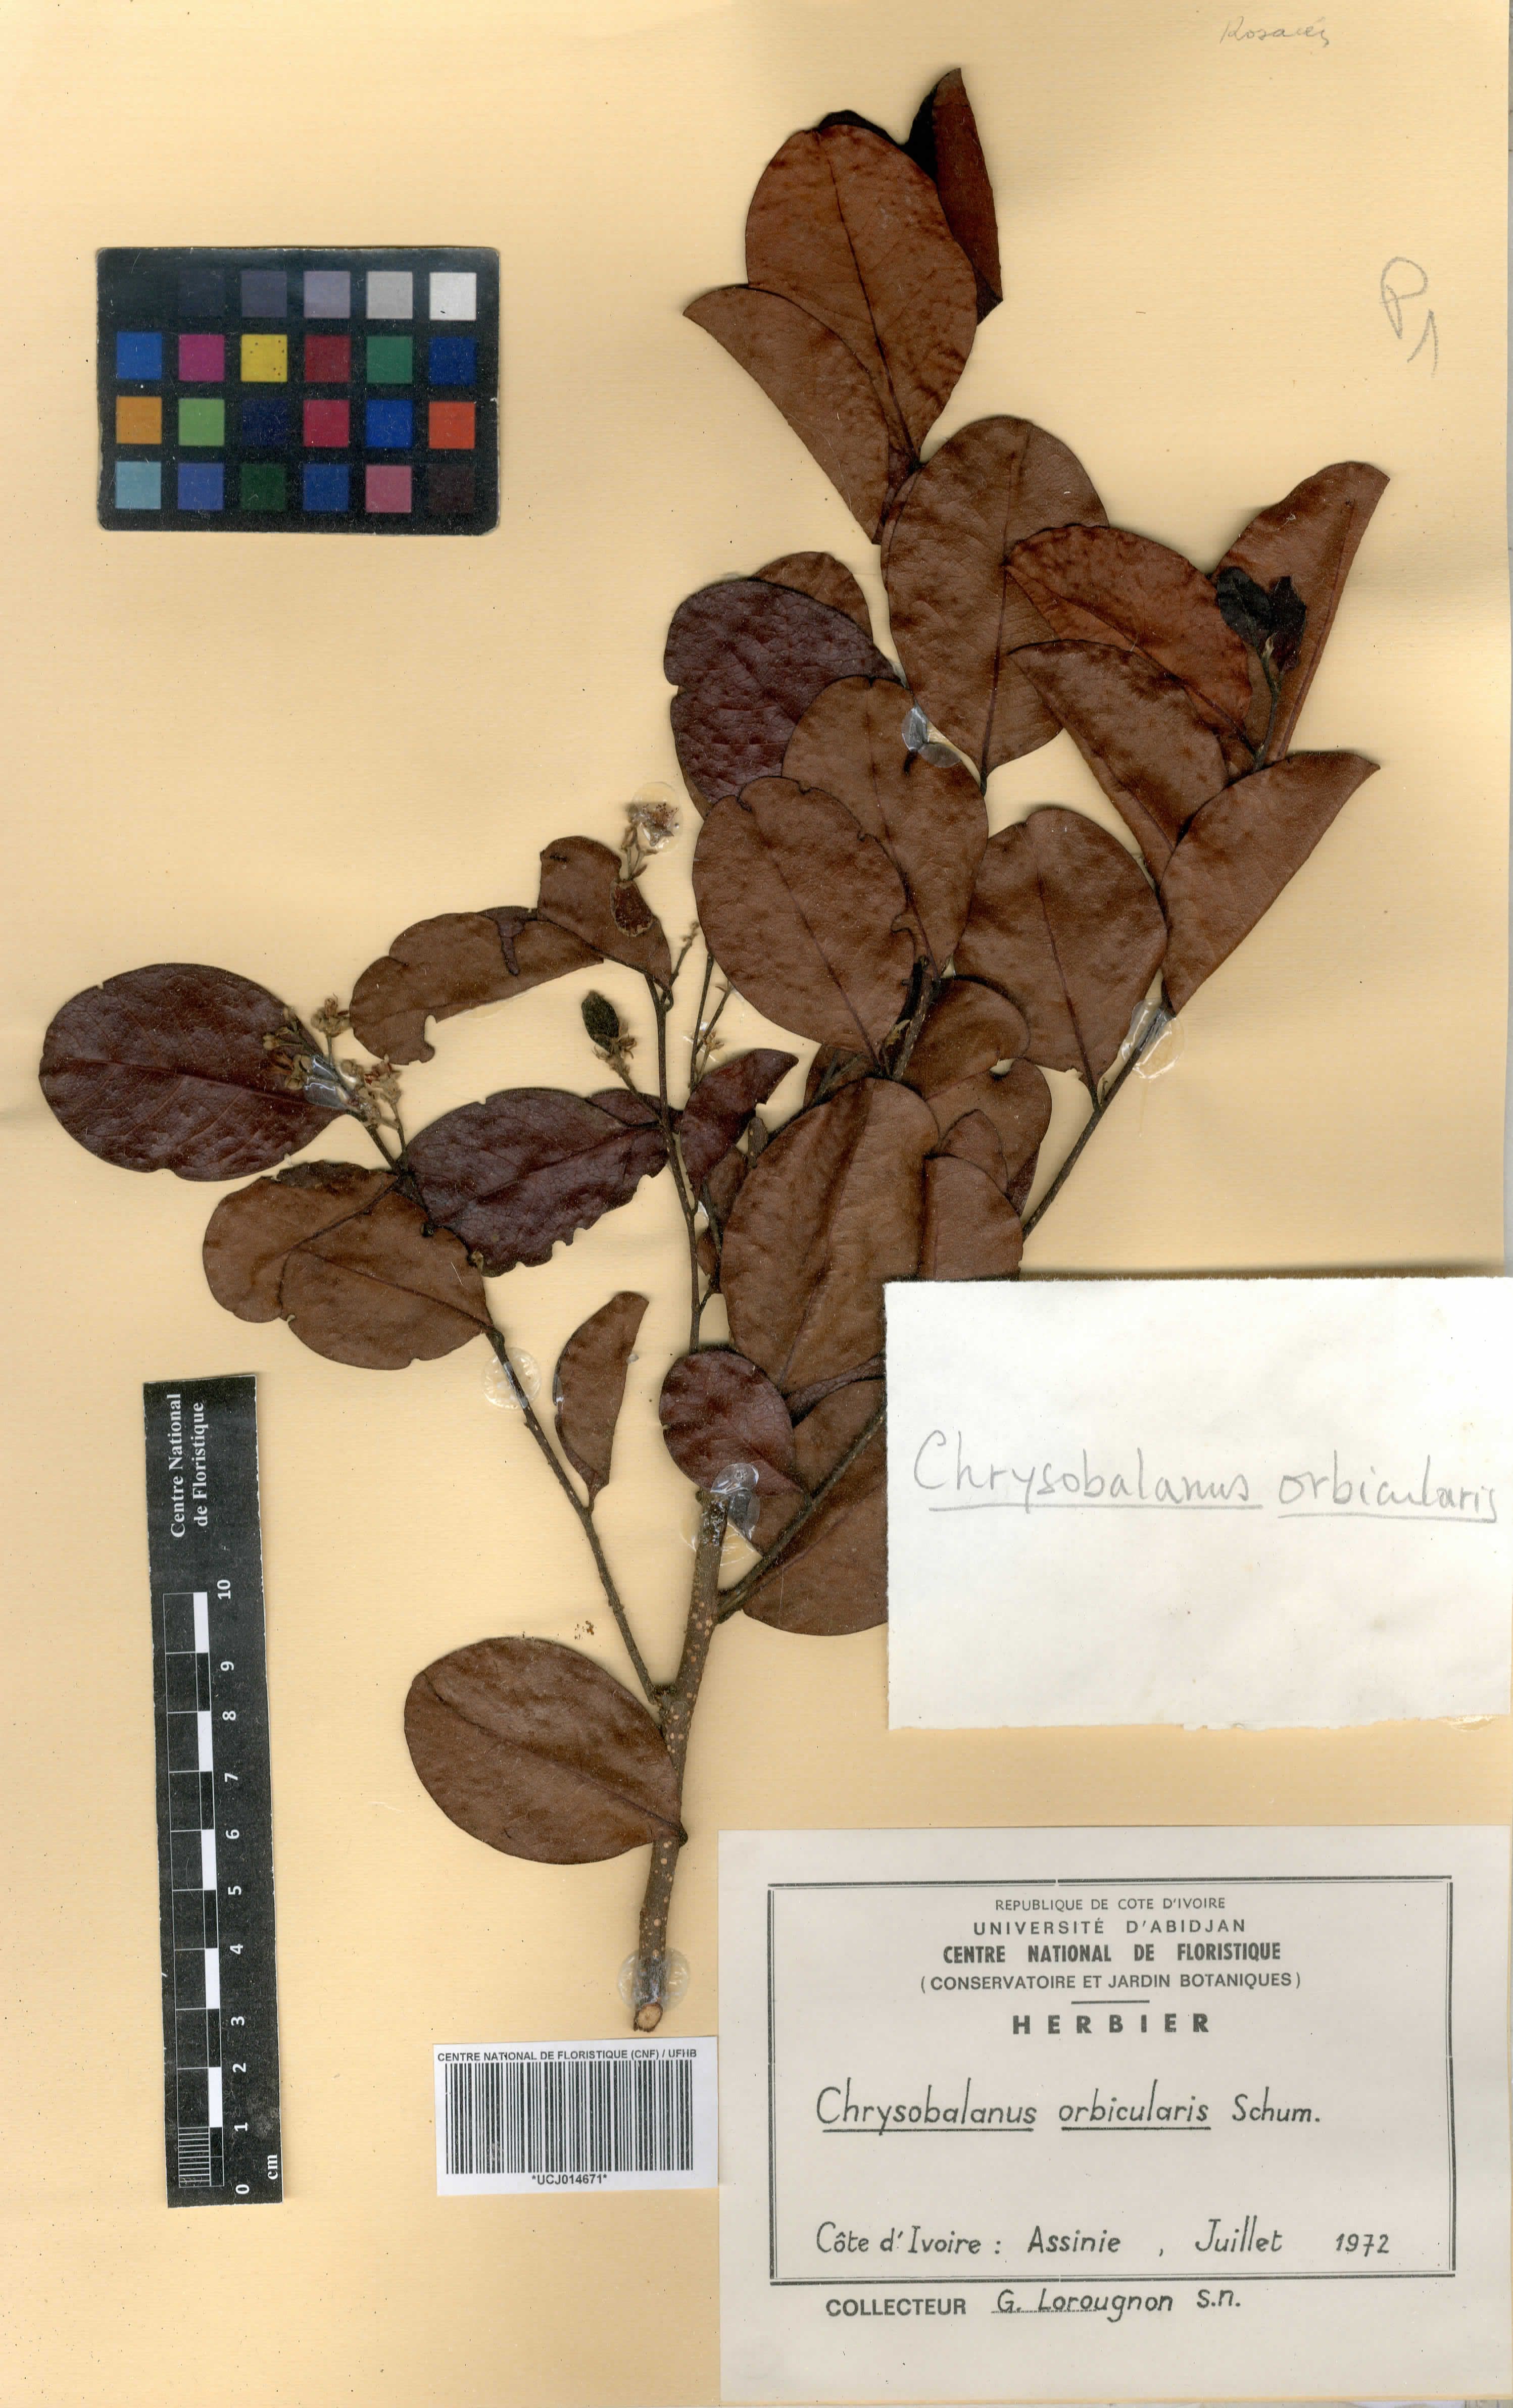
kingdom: Plantae
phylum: Tracheophyta
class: Magnoliopsida
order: Malpighiales
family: Chrysobalanaceae
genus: Chrysobalanus
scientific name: Chrysobalanus icaco
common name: Coco plum
